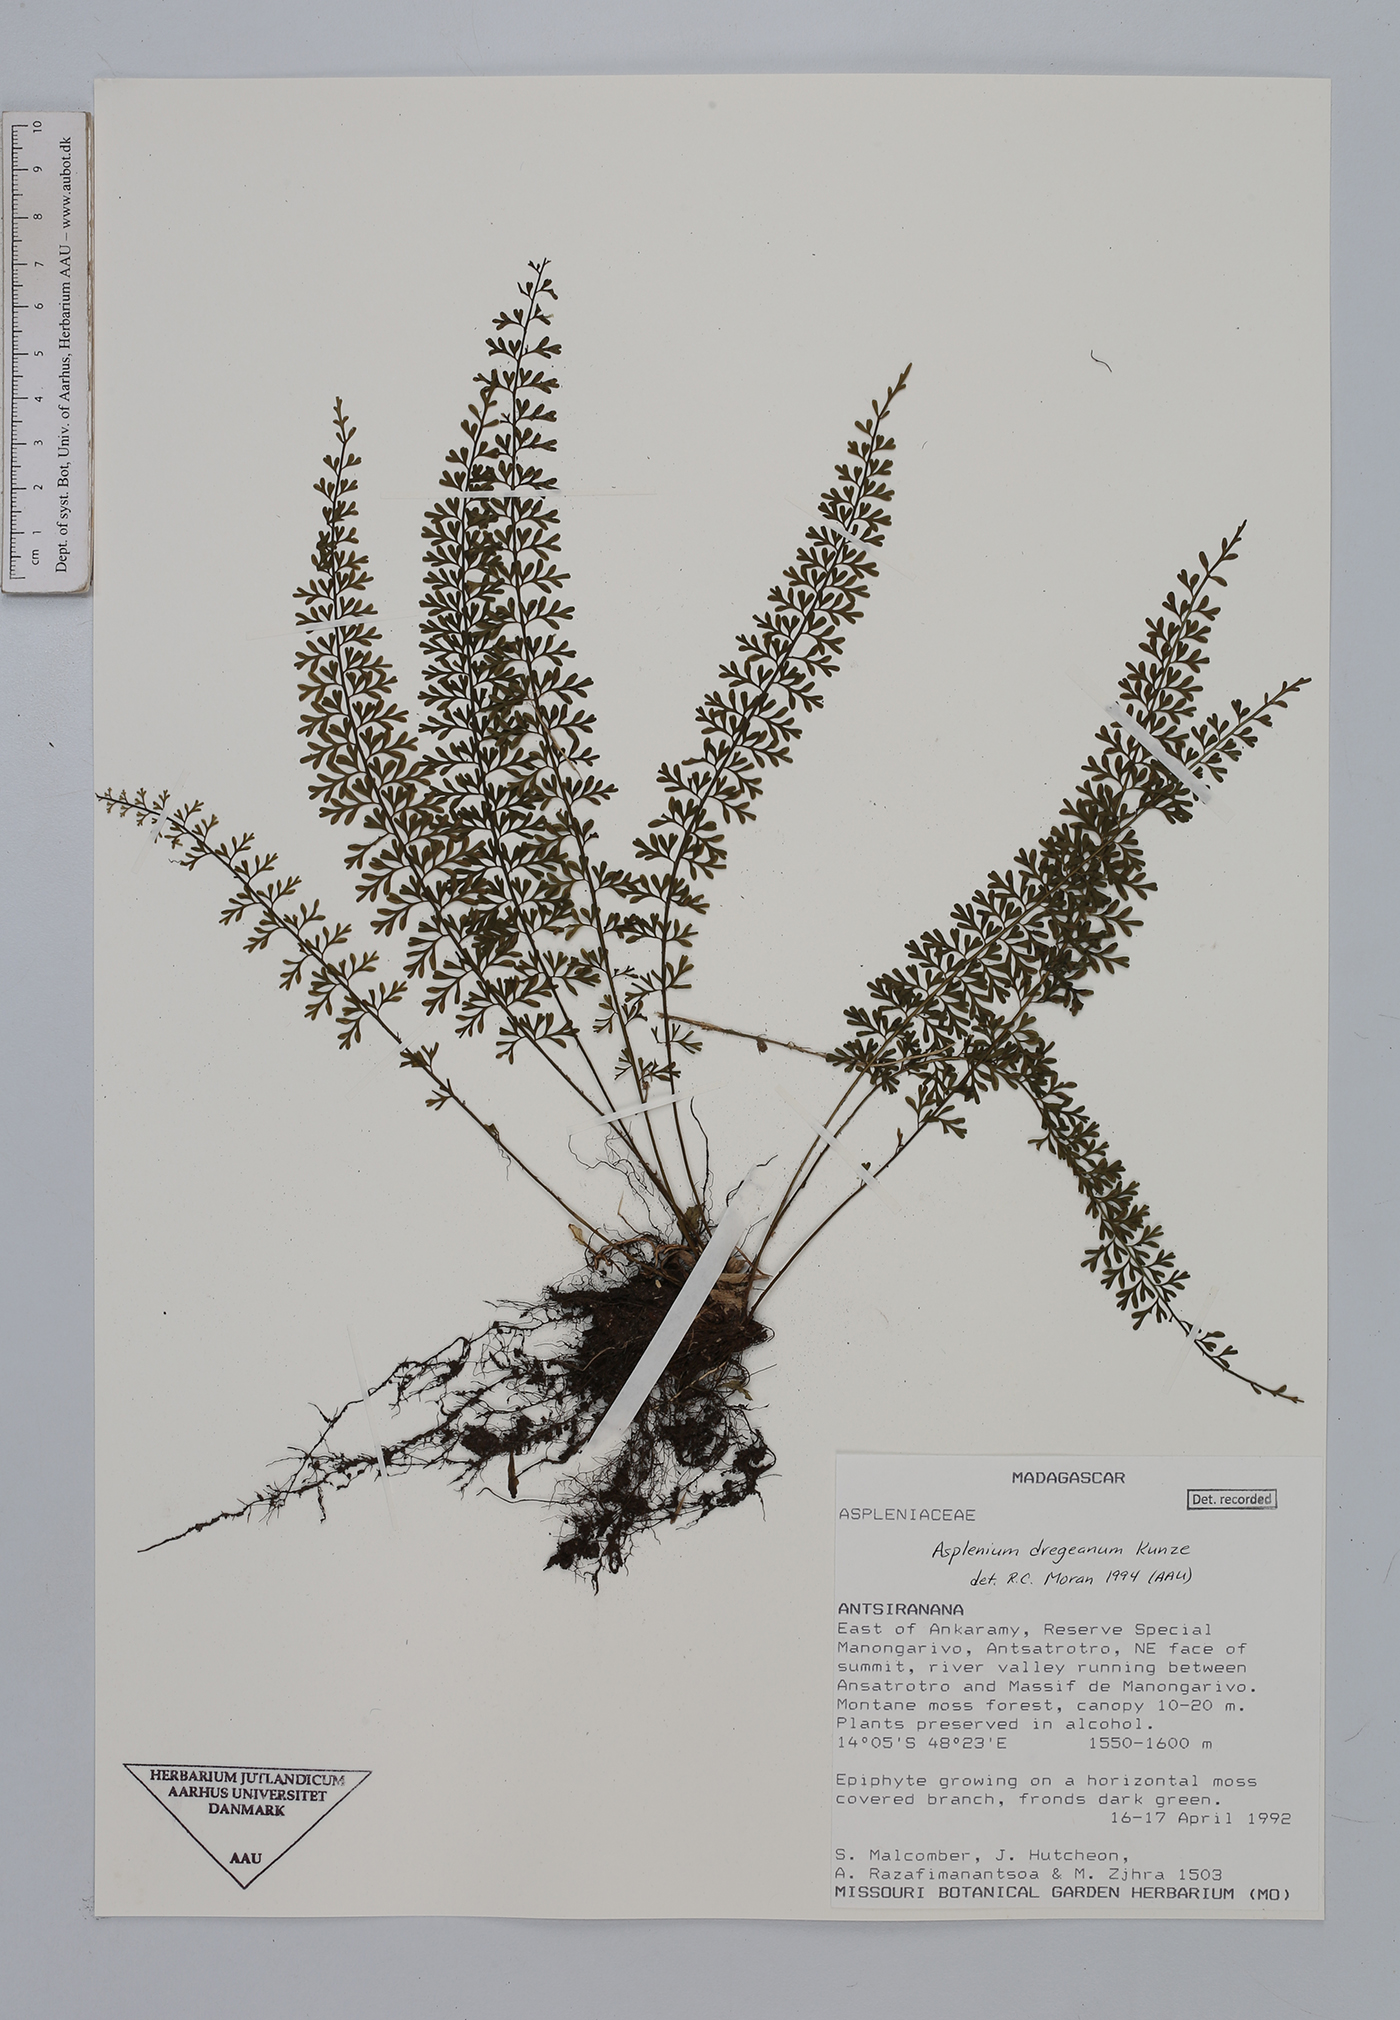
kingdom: Plantae
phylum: Tracheophyta
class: Polypodiopsida
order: Polypodiales
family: Aspleniaceae
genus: Asplenium
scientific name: Asplenium dregeanum
